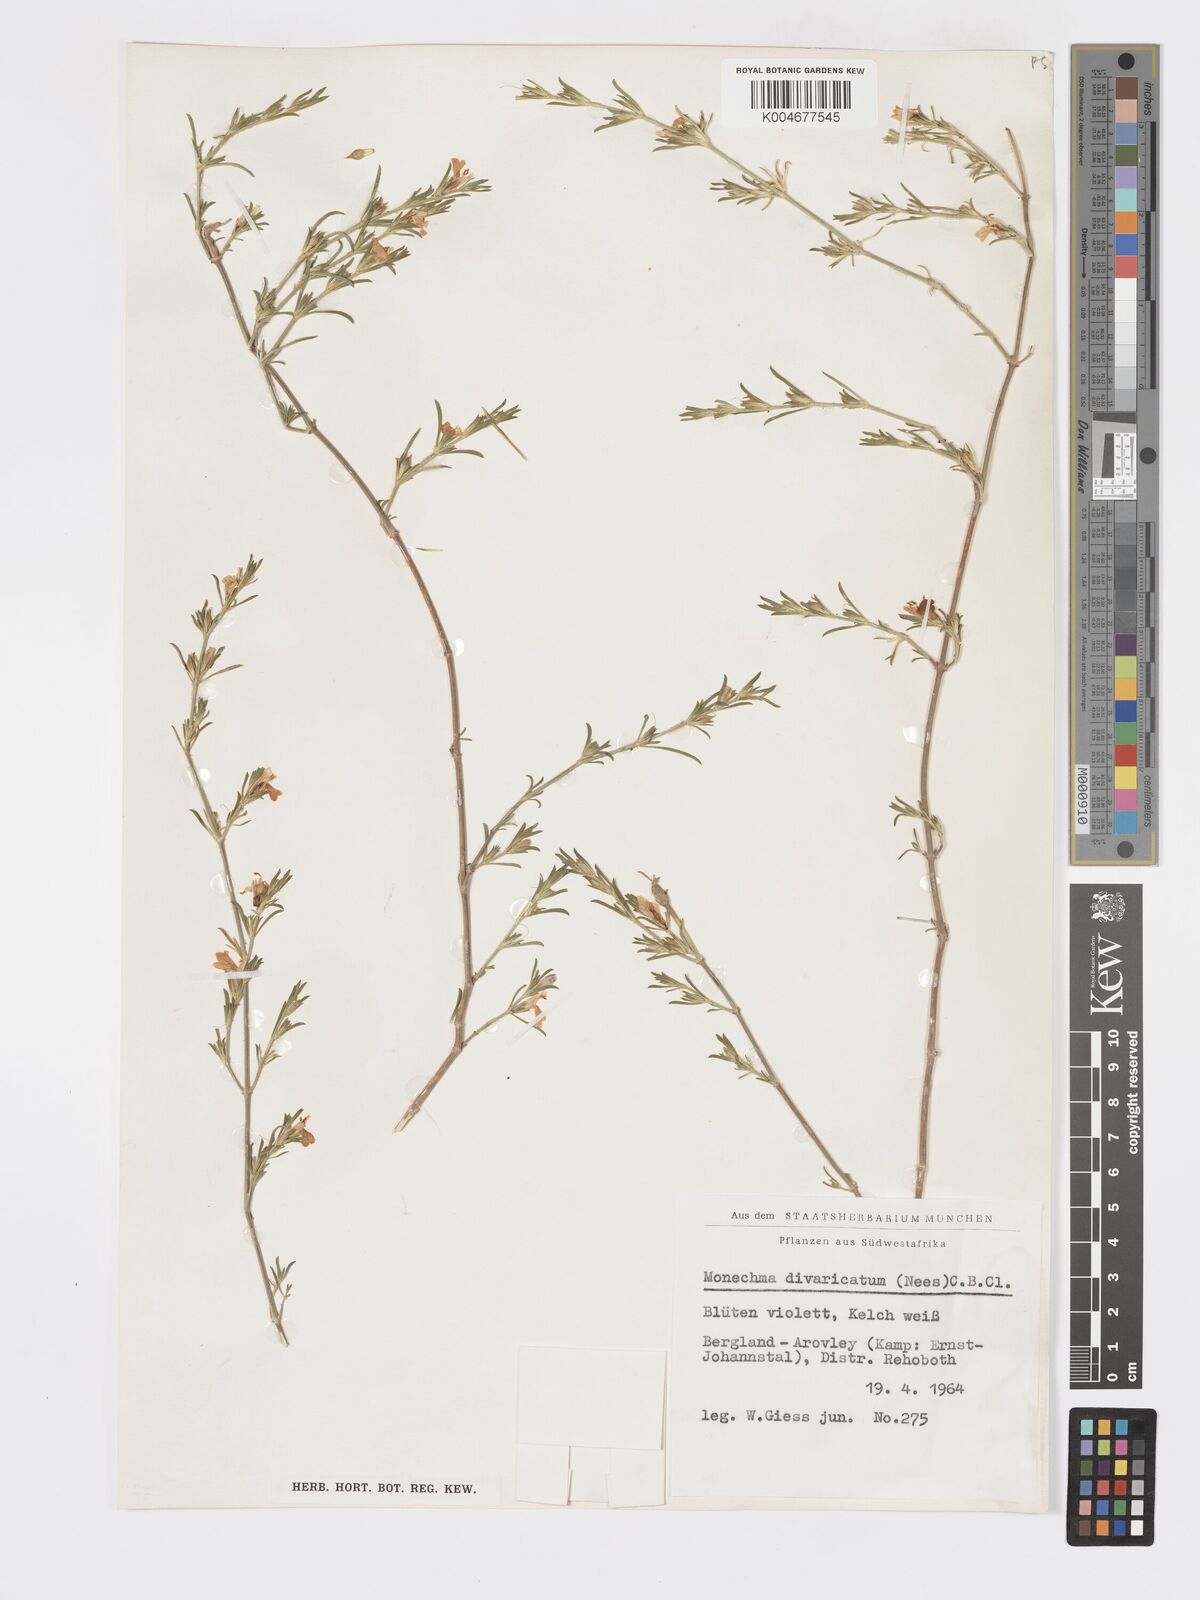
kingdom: Plantae
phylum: Tracheophyta
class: Magnoliopsida
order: Lamiales
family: Acanthaceae
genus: Pogonospermum
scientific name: Pogonospermum
